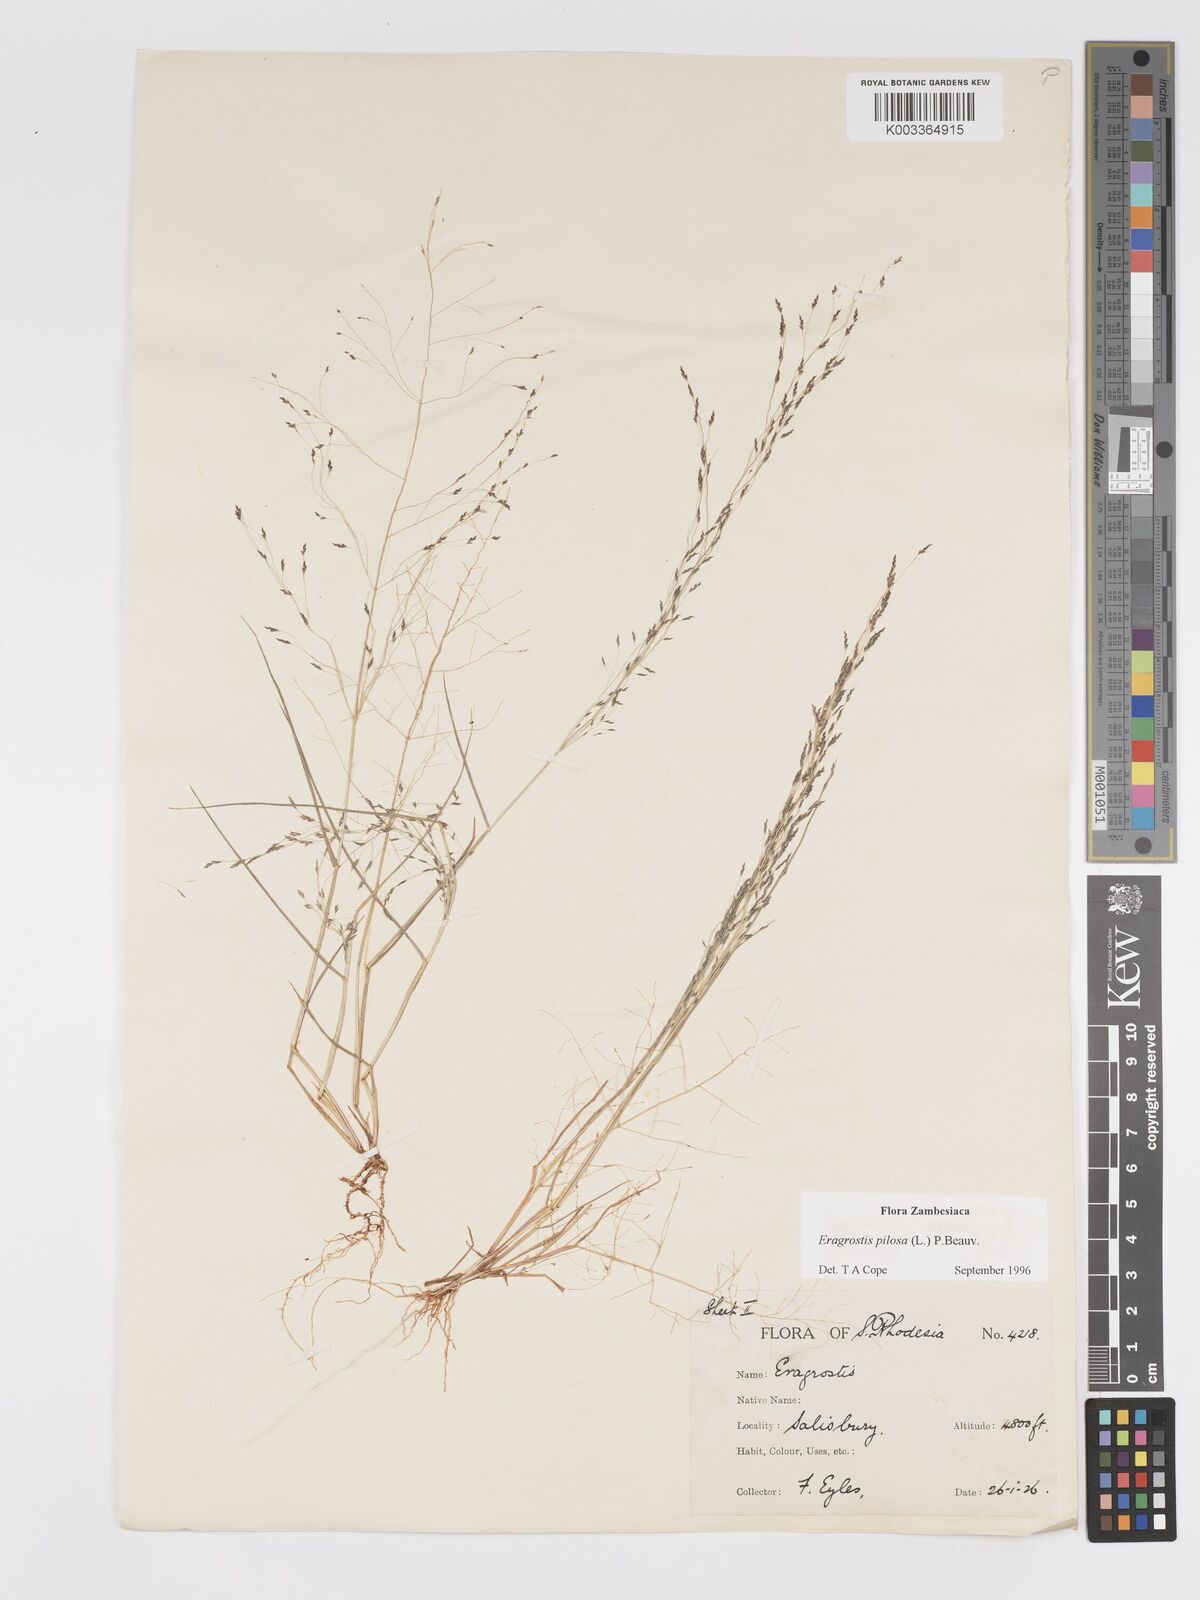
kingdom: Plantae
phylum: Tracheophyta
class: Liliopsida
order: Poales
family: Poaceae
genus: Eragrostis
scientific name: Eragrostis pilosa
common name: Indian lovegrass
